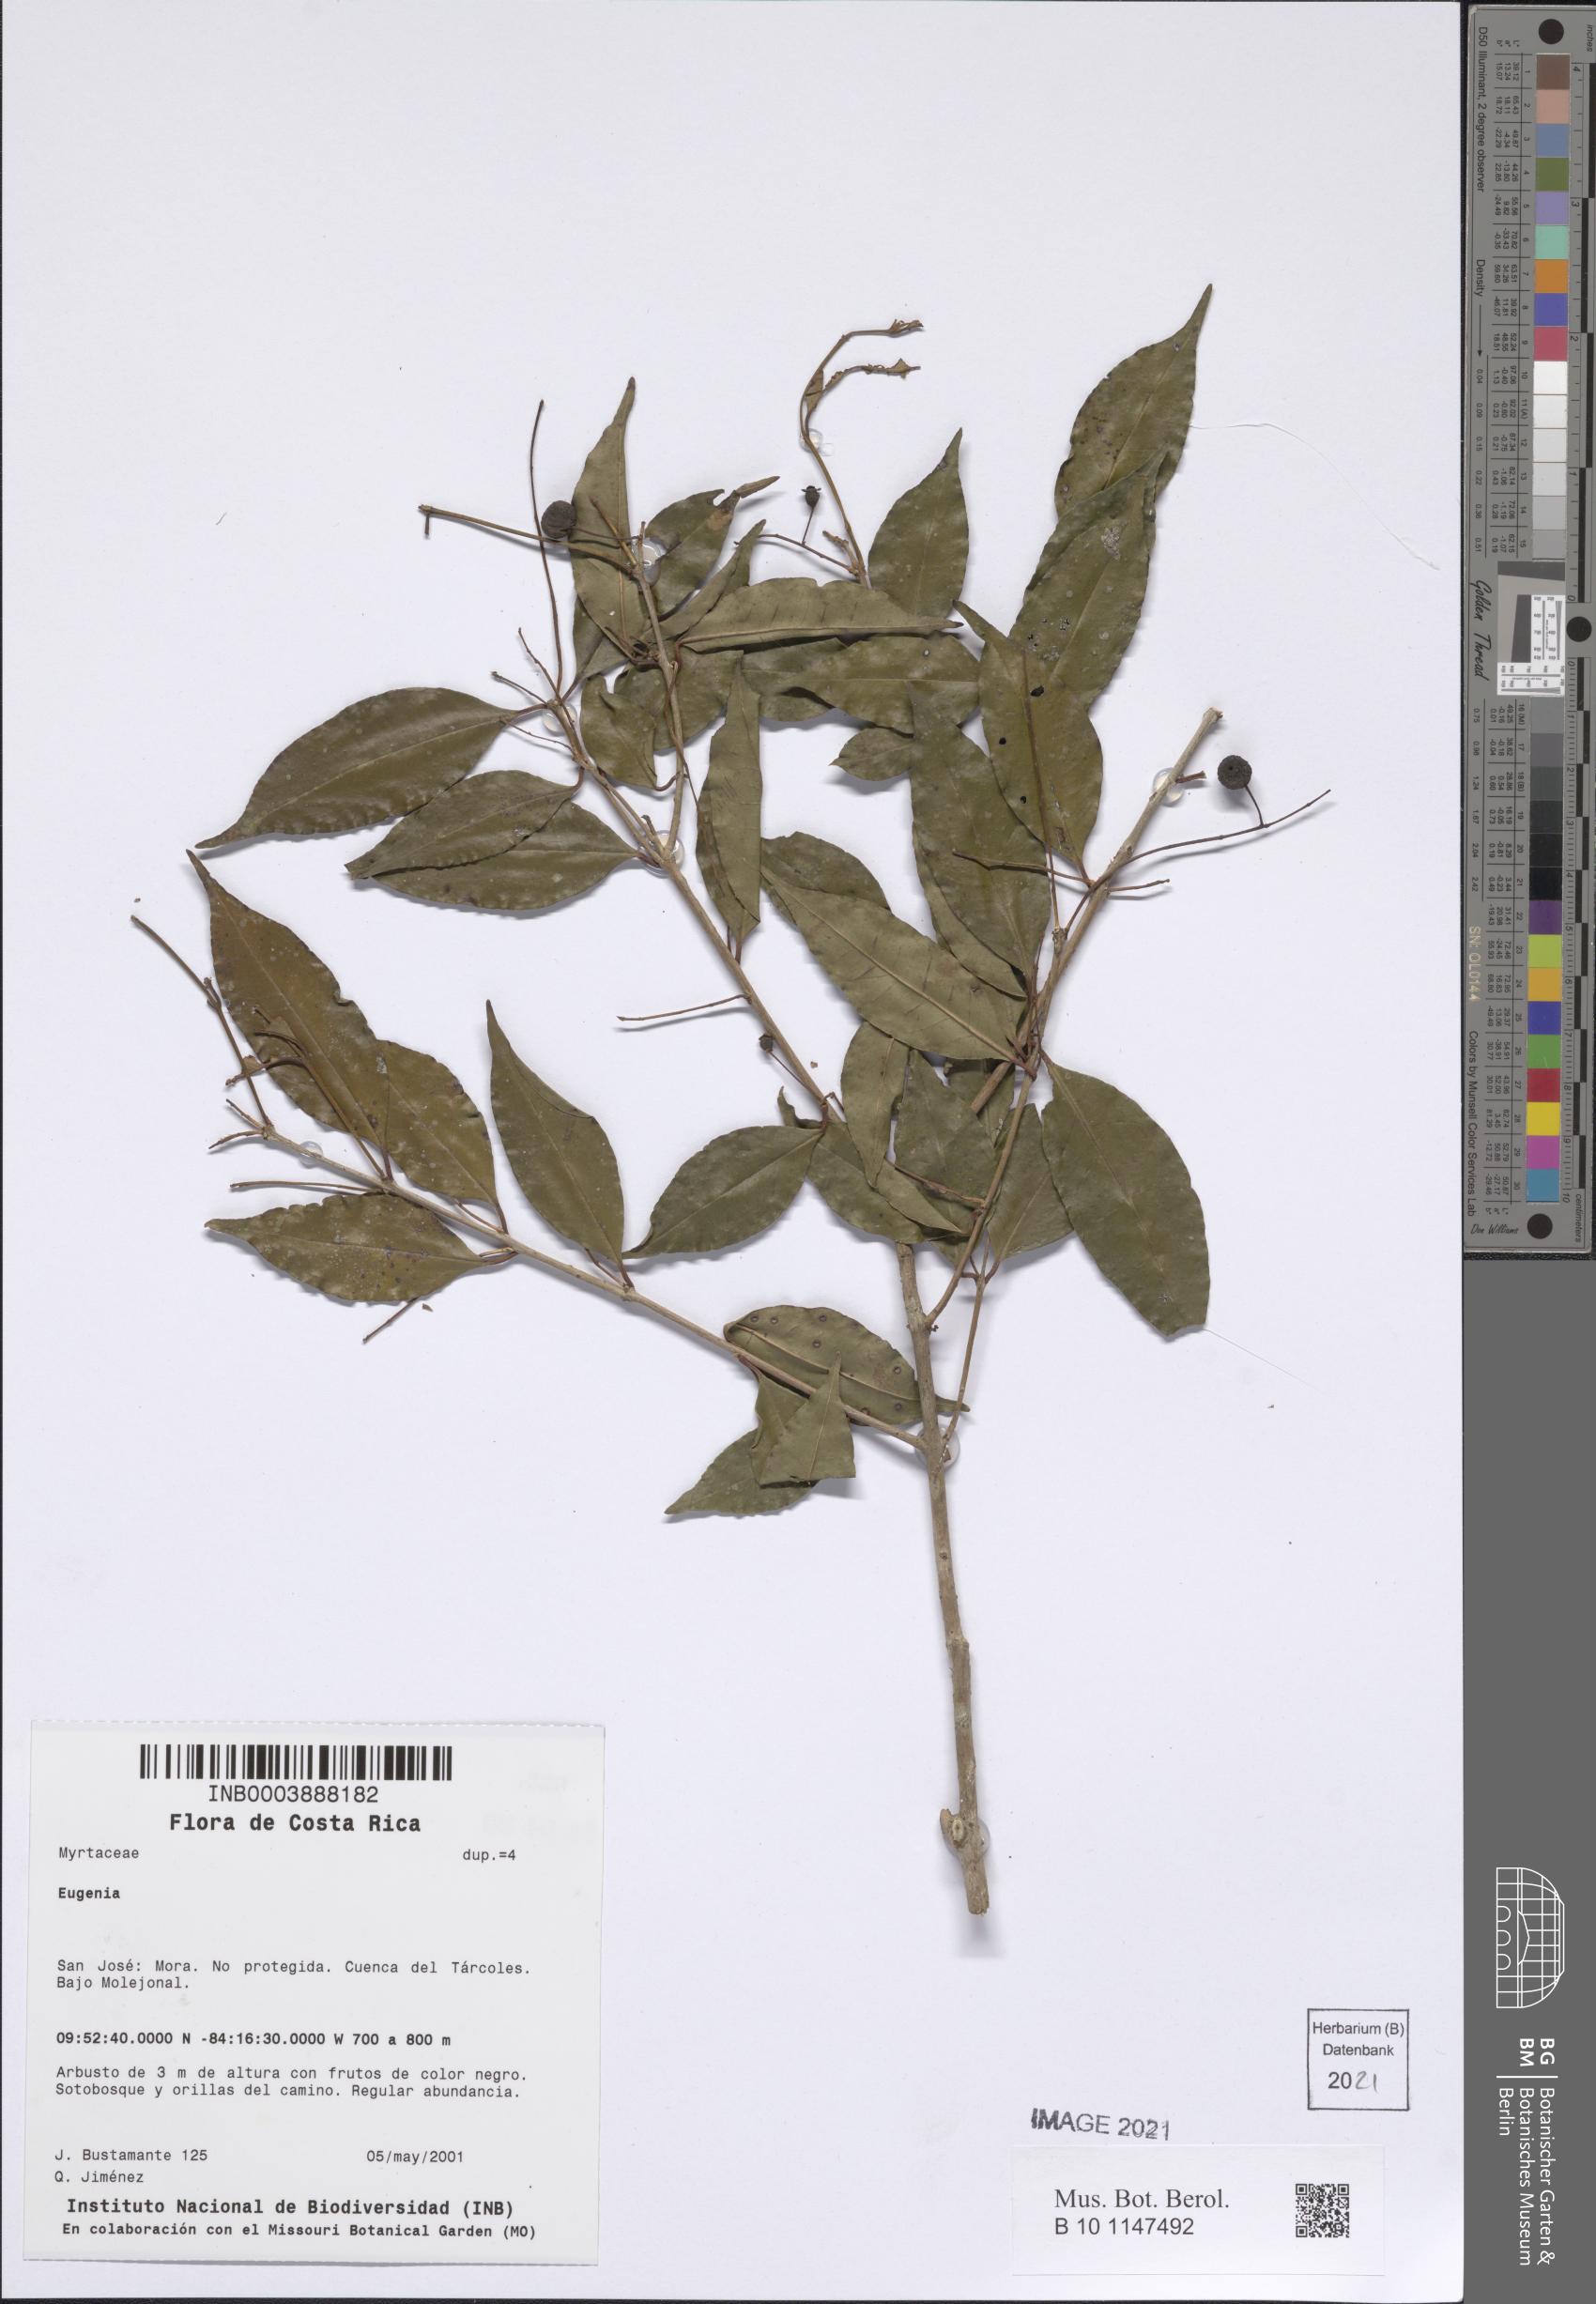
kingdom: Plantae
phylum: Tracheophyta
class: Magnoliopsida
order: Myrtales
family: Myrtaceae
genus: Eugenia
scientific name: Eugenia
